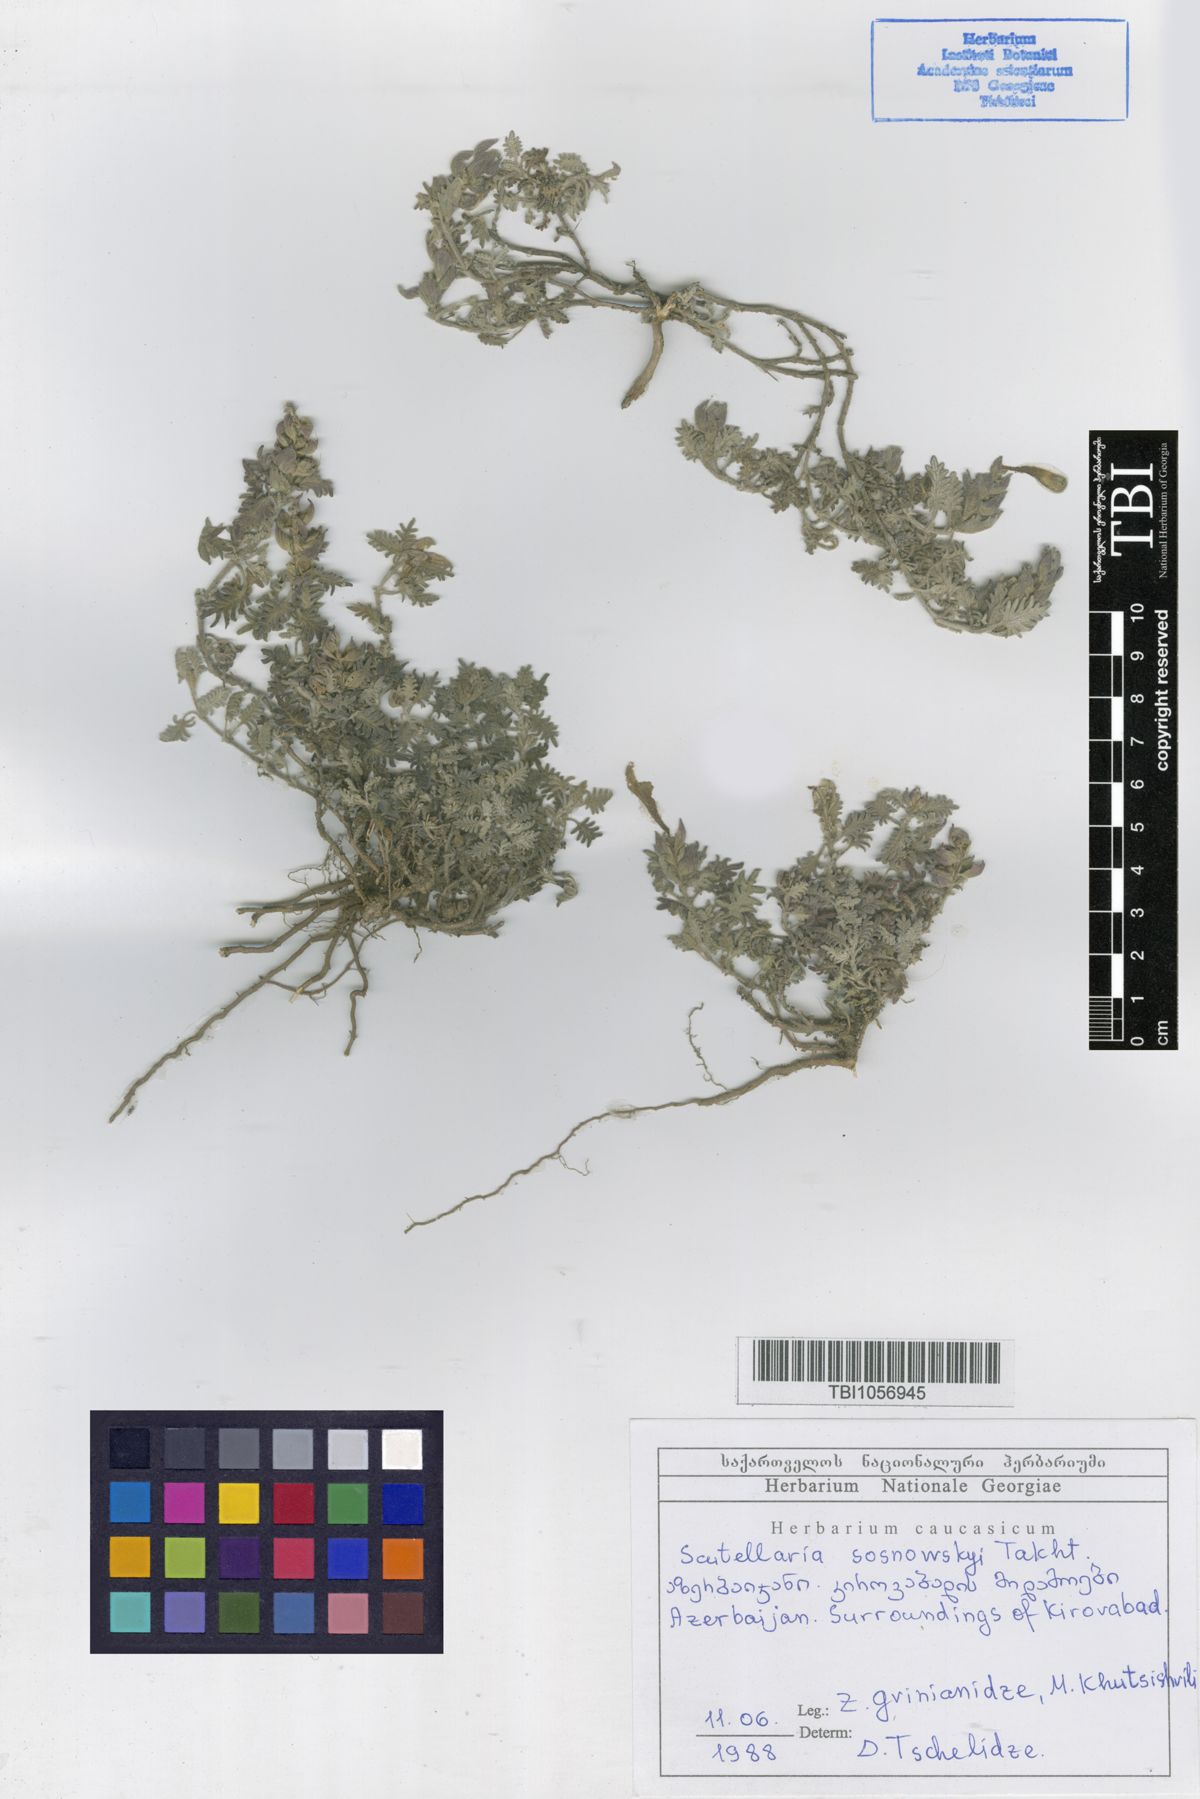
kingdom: Plantae
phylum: Tracheophyta
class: Magnoliopsida
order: Lamiales
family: Lamiaceae
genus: Scutellaria
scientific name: Scutellaria sosnowskyi
